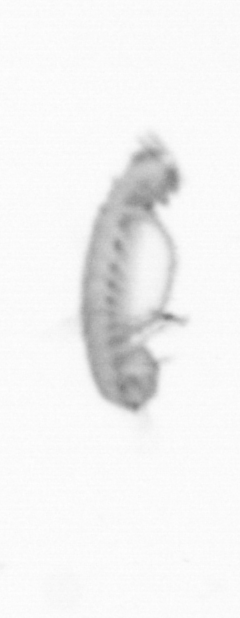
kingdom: Animalia
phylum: Annelida
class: Polychaeta
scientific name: Polychaeta
